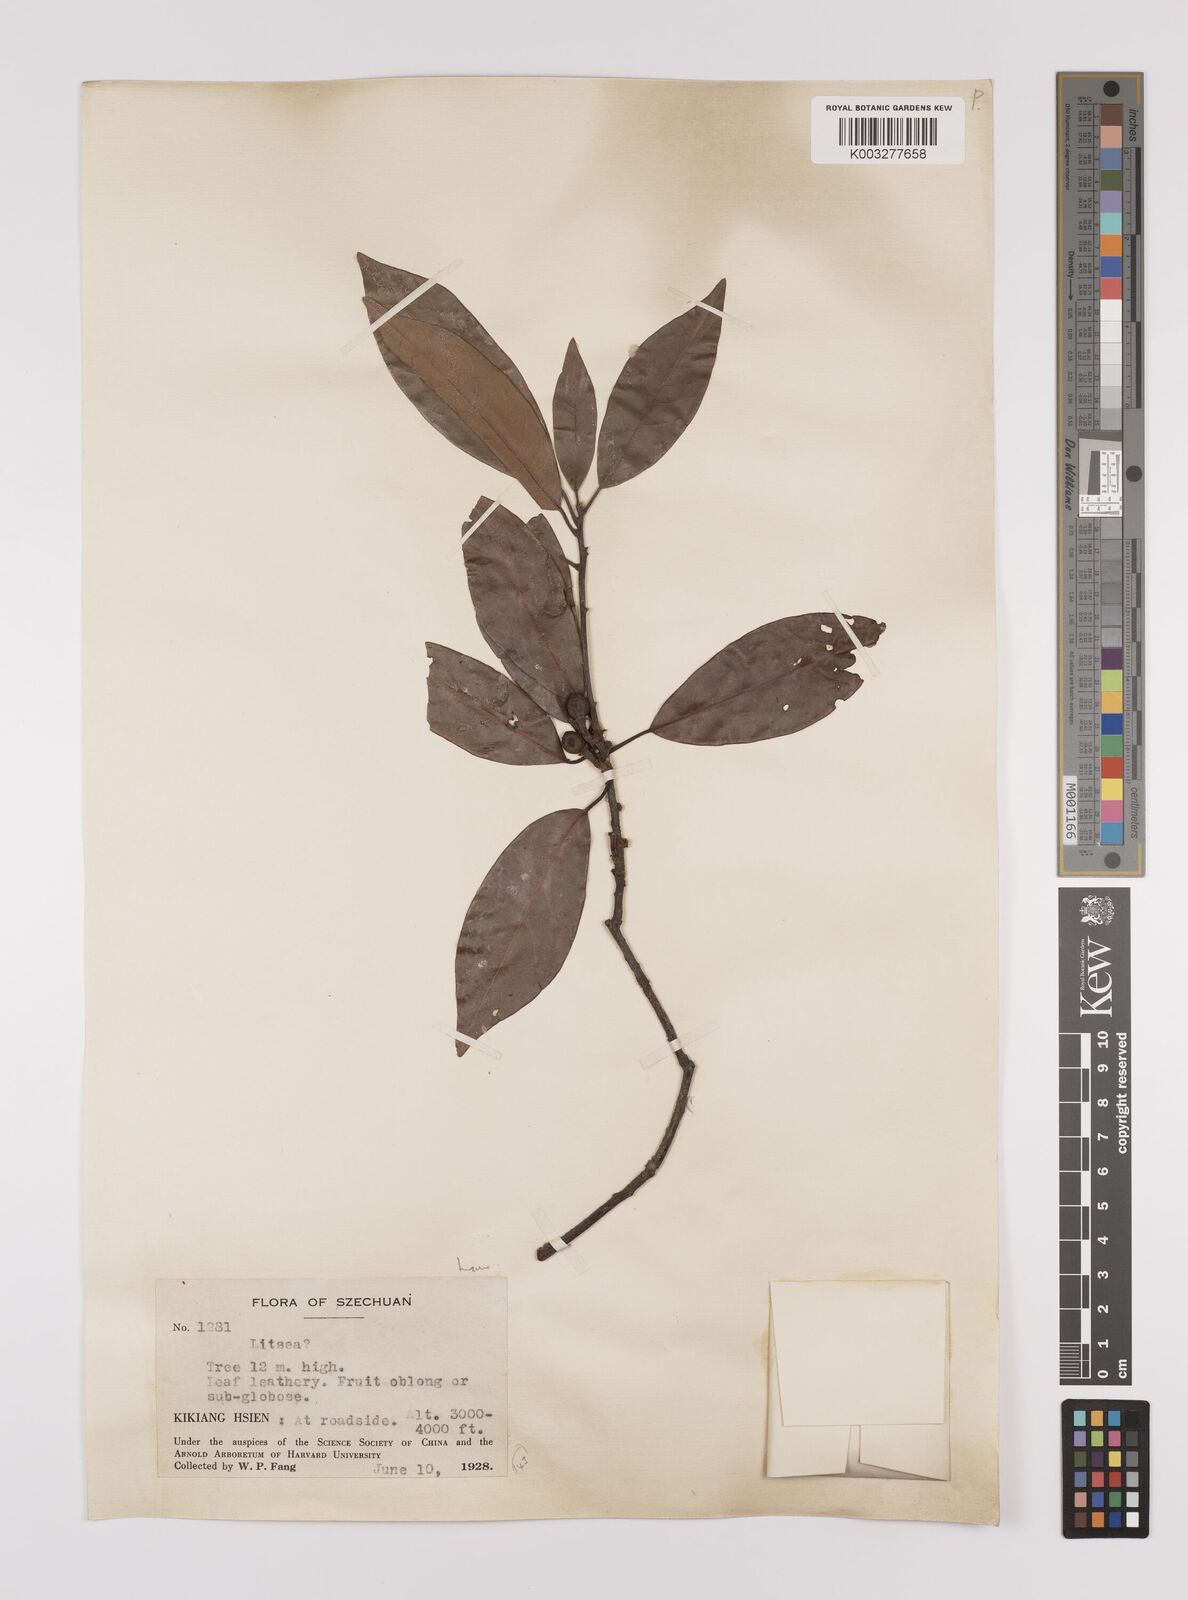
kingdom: Plantae
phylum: Tracheophyta
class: Magnoliopsida
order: Laurales
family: Lauraceae
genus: Litsea
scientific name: Litsea rotundifolia
